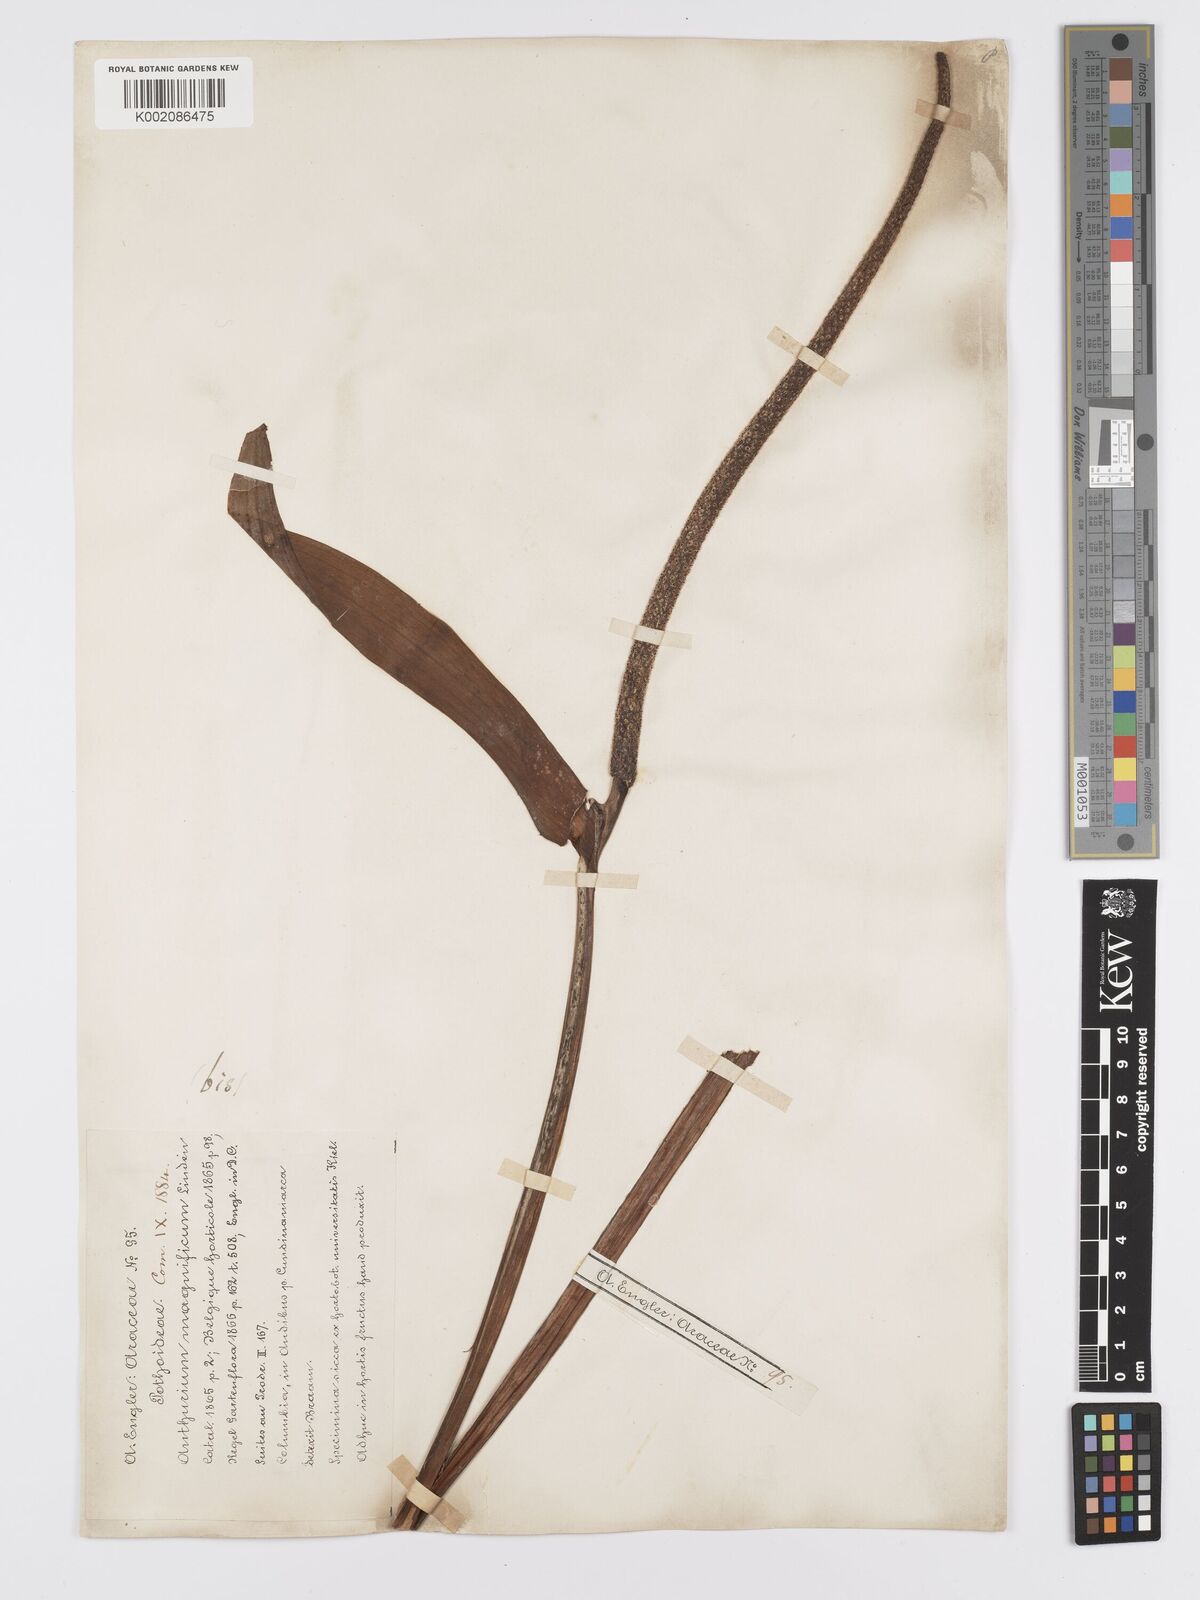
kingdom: Plantae
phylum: Tracheophyta
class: Liliopsida
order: Alismatales
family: Araceae
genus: Anthurium
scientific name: Anthurium magnificum
